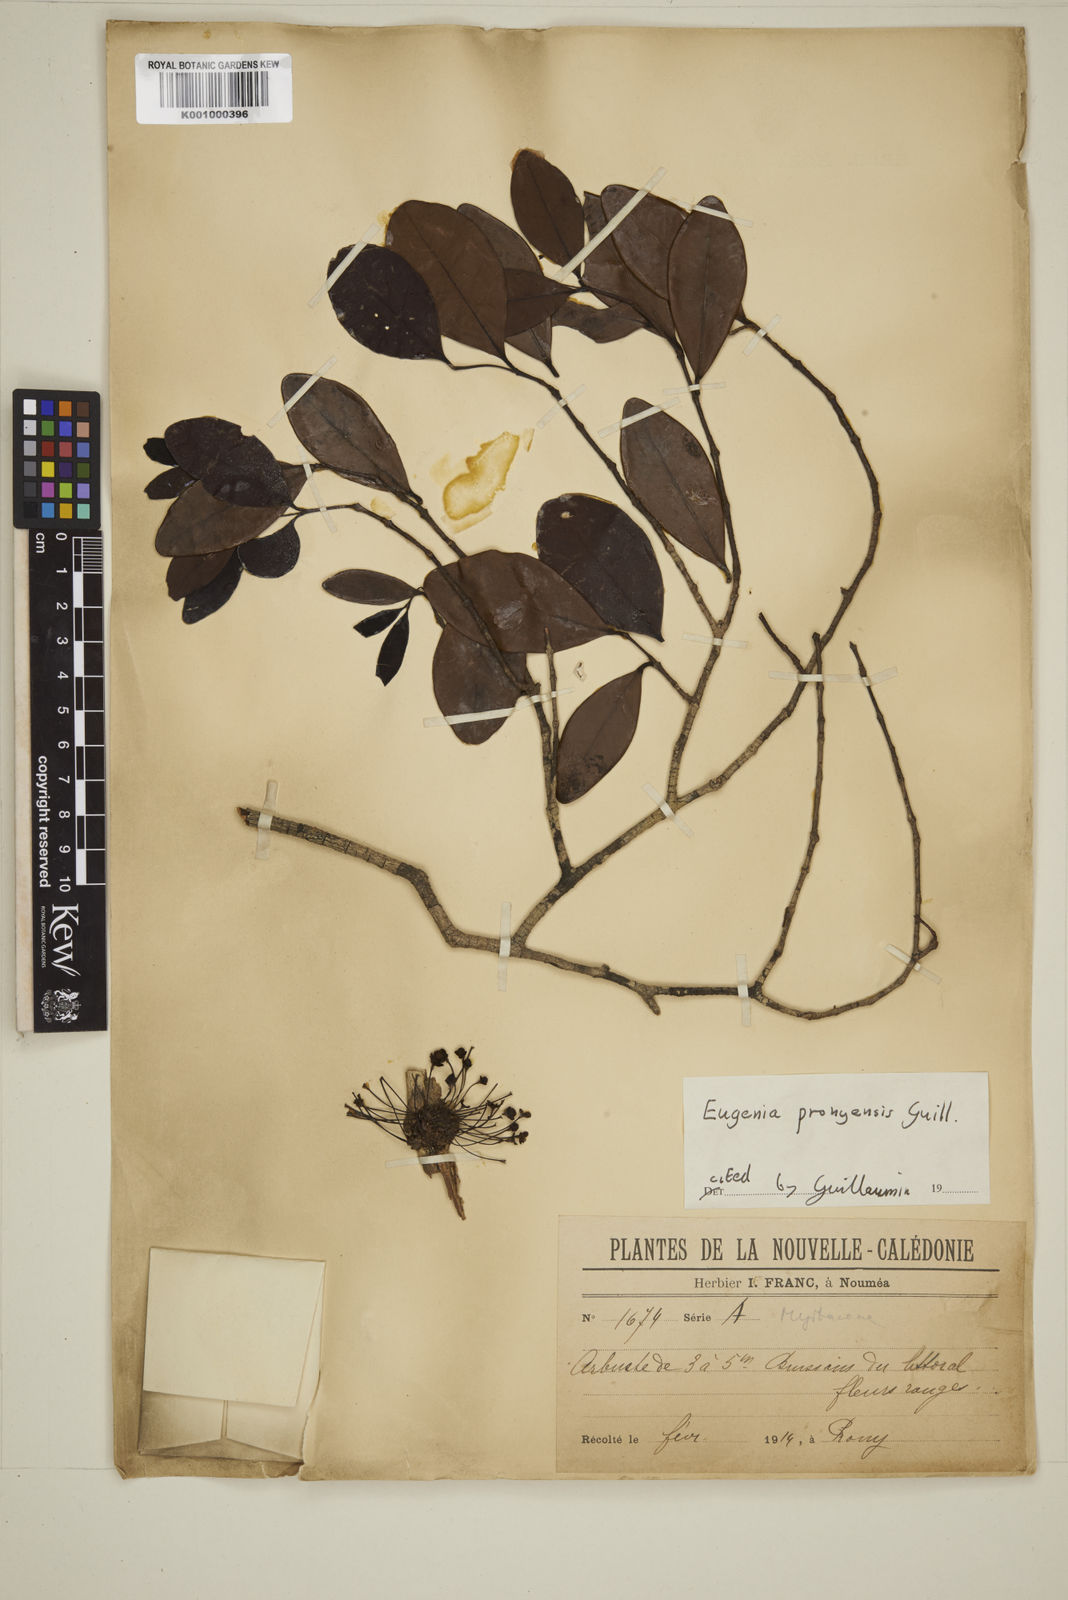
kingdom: Plantae
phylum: Tracheophyta
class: Magnoliopsida
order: Myrtales
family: Myrtaceae
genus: Eugenia
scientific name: Eugenia pronyensis
